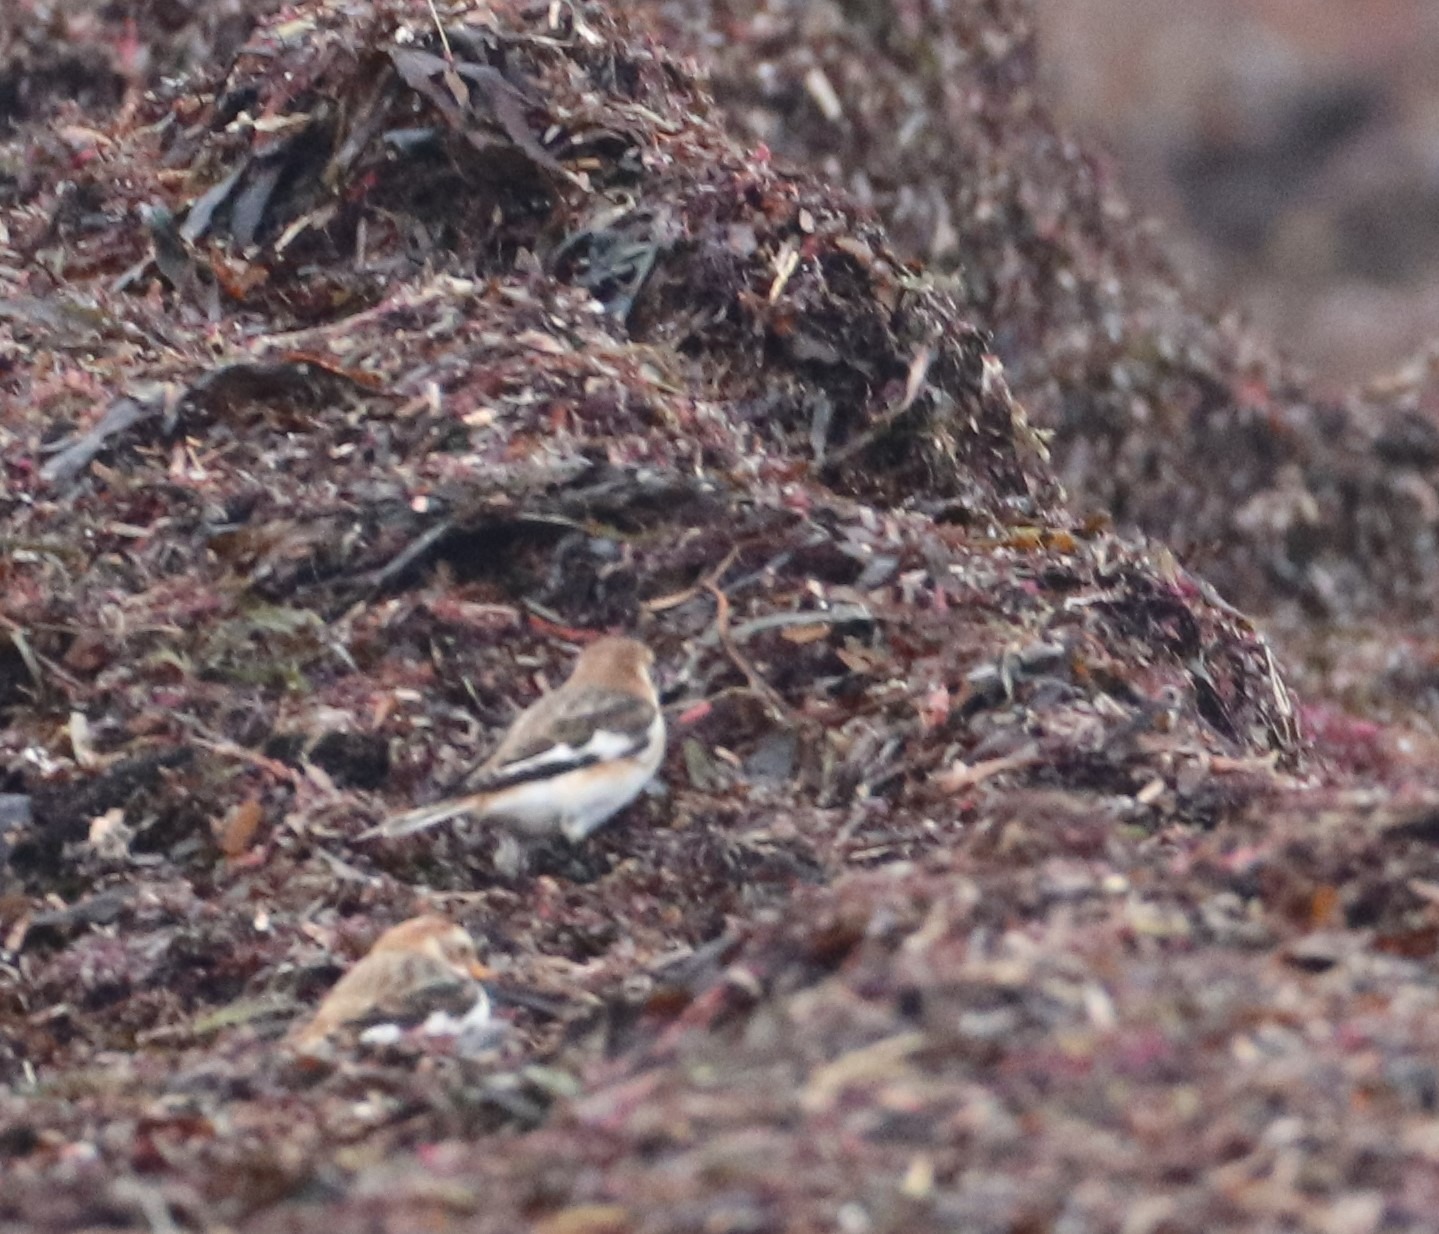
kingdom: Animalia
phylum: Chordata
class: Aves
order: Passeriformes
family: Calcariidae
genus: Plectrophenax
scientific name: Plectrophenax nivalis
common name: Snespurv
